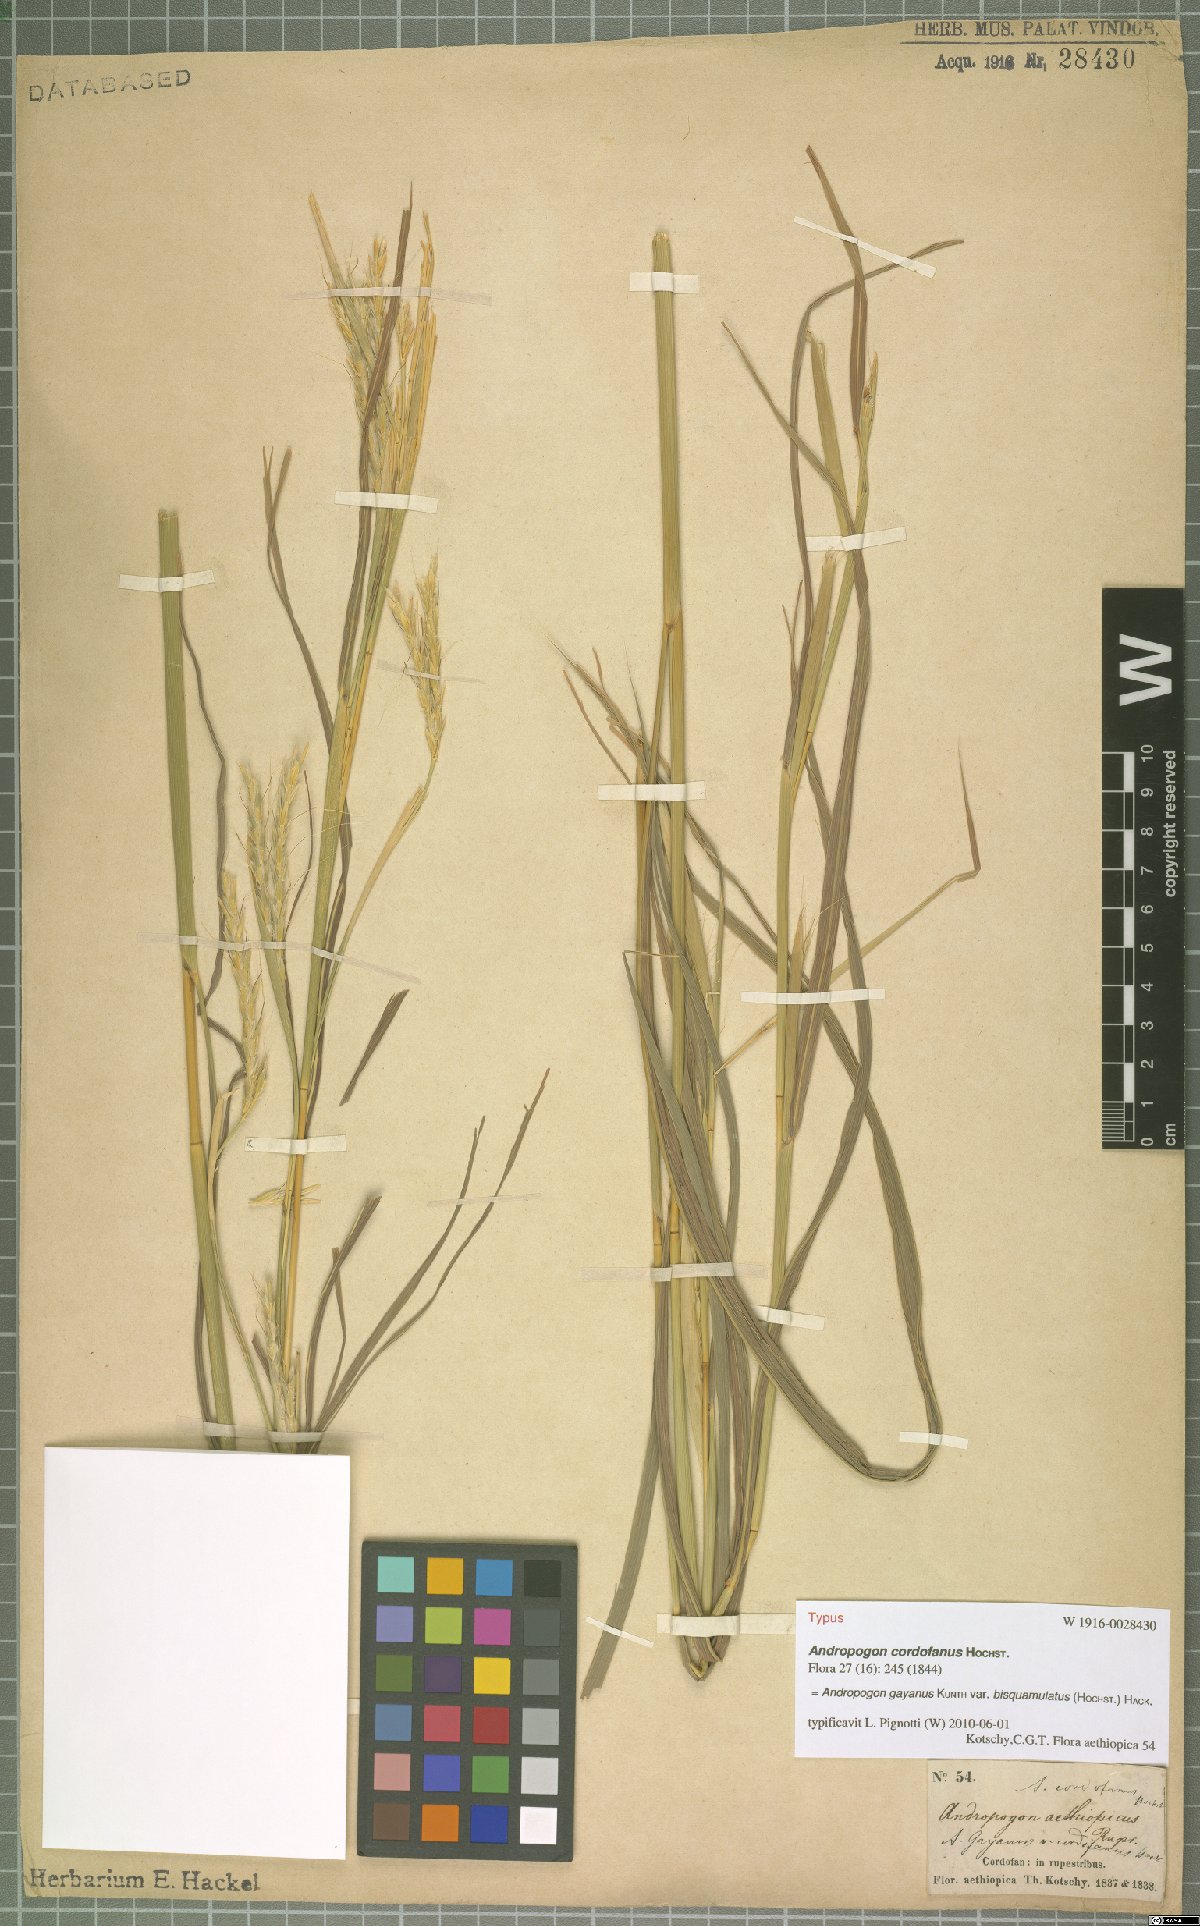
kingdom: Plantae
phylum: Tracheophyta
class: Liliopsida
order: Poales
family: Poaceae
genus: Andropogon
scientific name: Andropogon gayanus
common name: Tambuki grass
